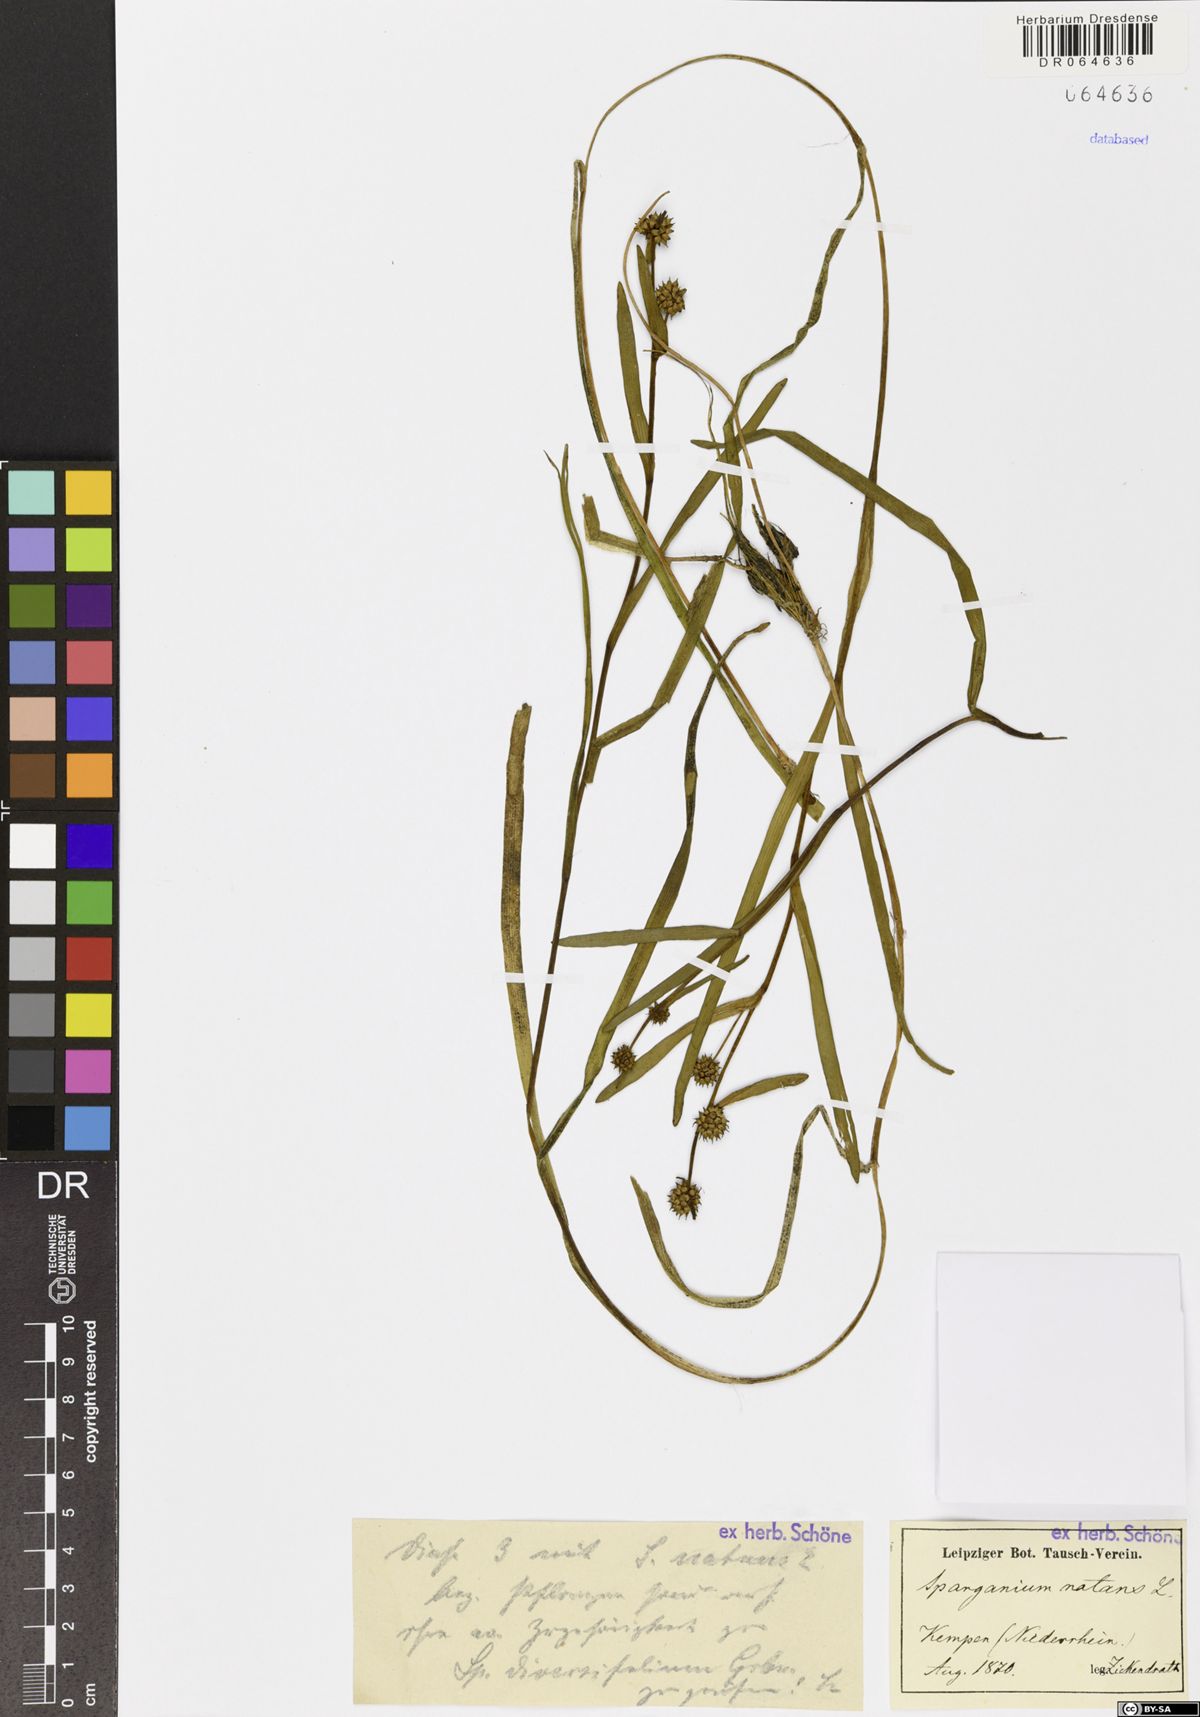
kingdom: Plantae
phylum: Tracheophyta
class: Liliopsida
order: Poales
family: Typhaceae
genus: Sparganium
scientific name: Sparganium natans
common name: Least bur-reed
